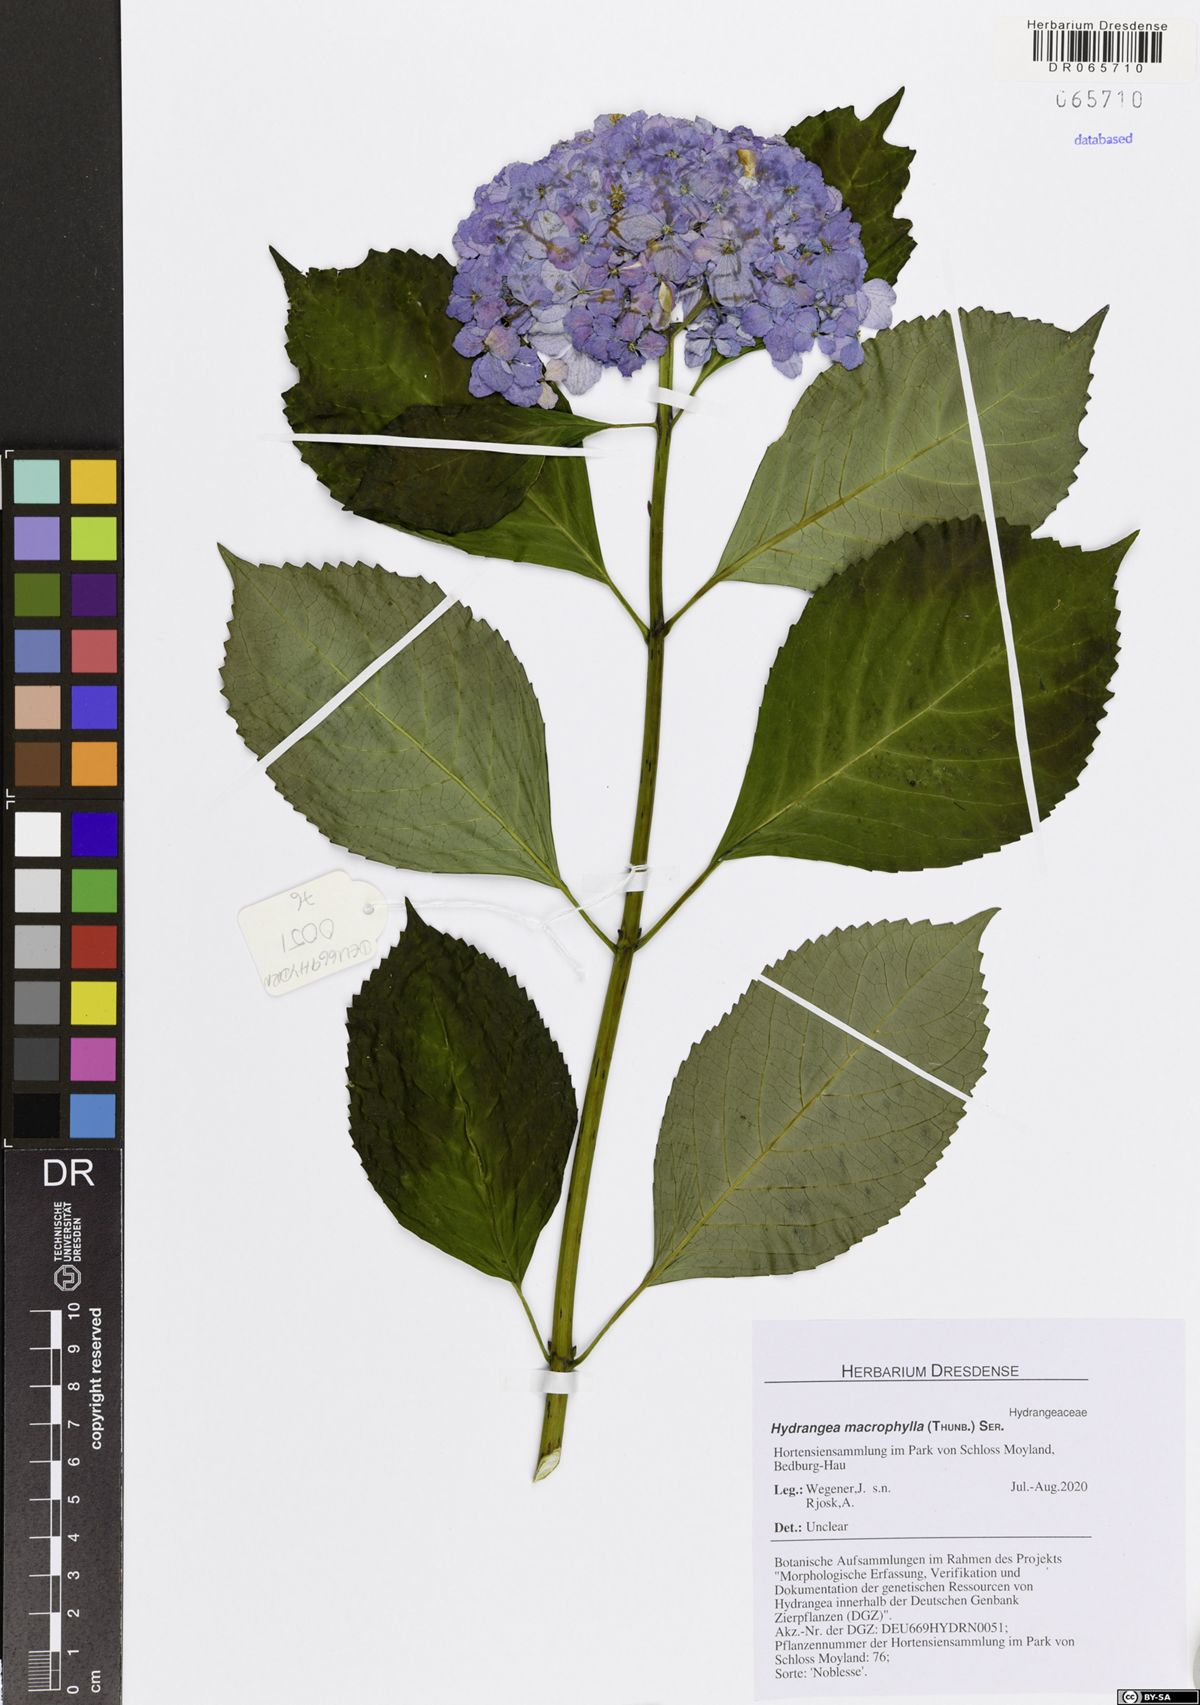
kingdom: Plantae
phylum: Tracheophyta
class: Magnoliopsida
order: Cornales
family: Hydrangeaceae
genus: Hydrangea
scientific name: Hydrangea macrophylla
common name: Hydrangea
